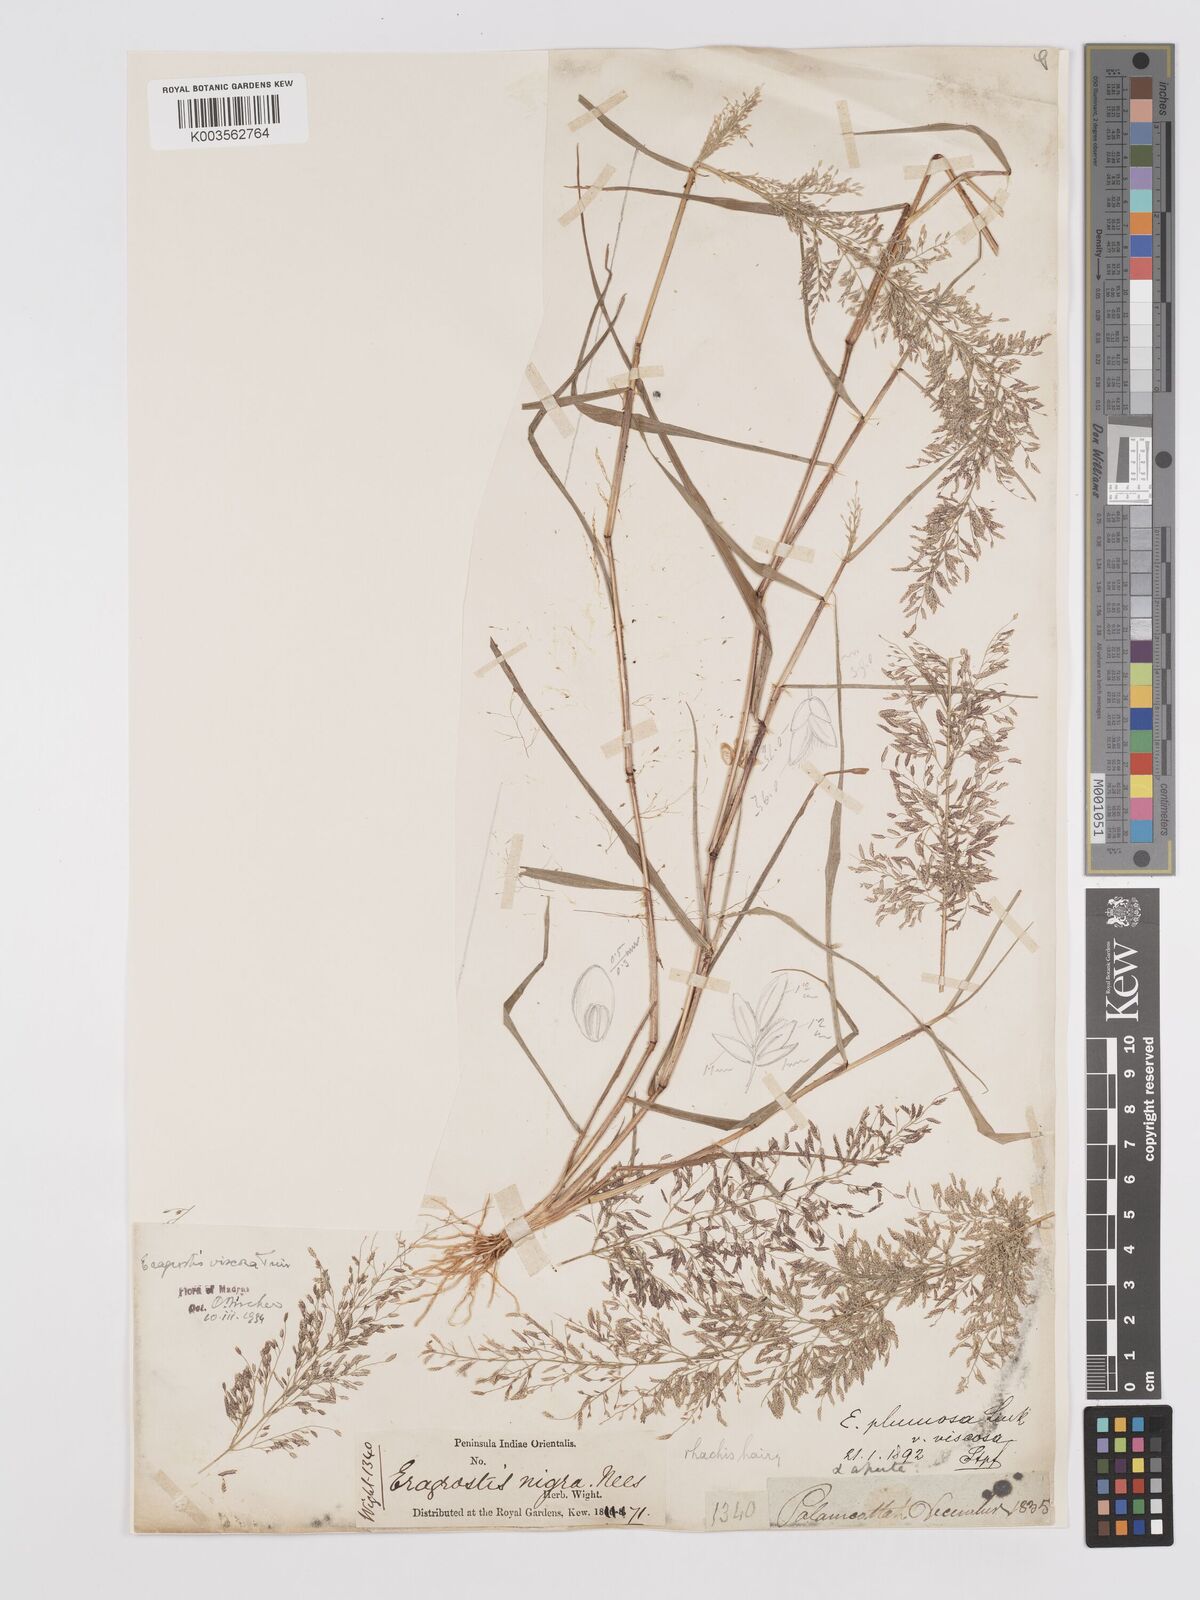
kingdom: Plantae
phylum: Tracheophyta
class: Liliopsida
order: Poales
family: Poaceae
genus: Eragrostis
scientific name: Eragrostis viscosa
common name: Sticky love grass
